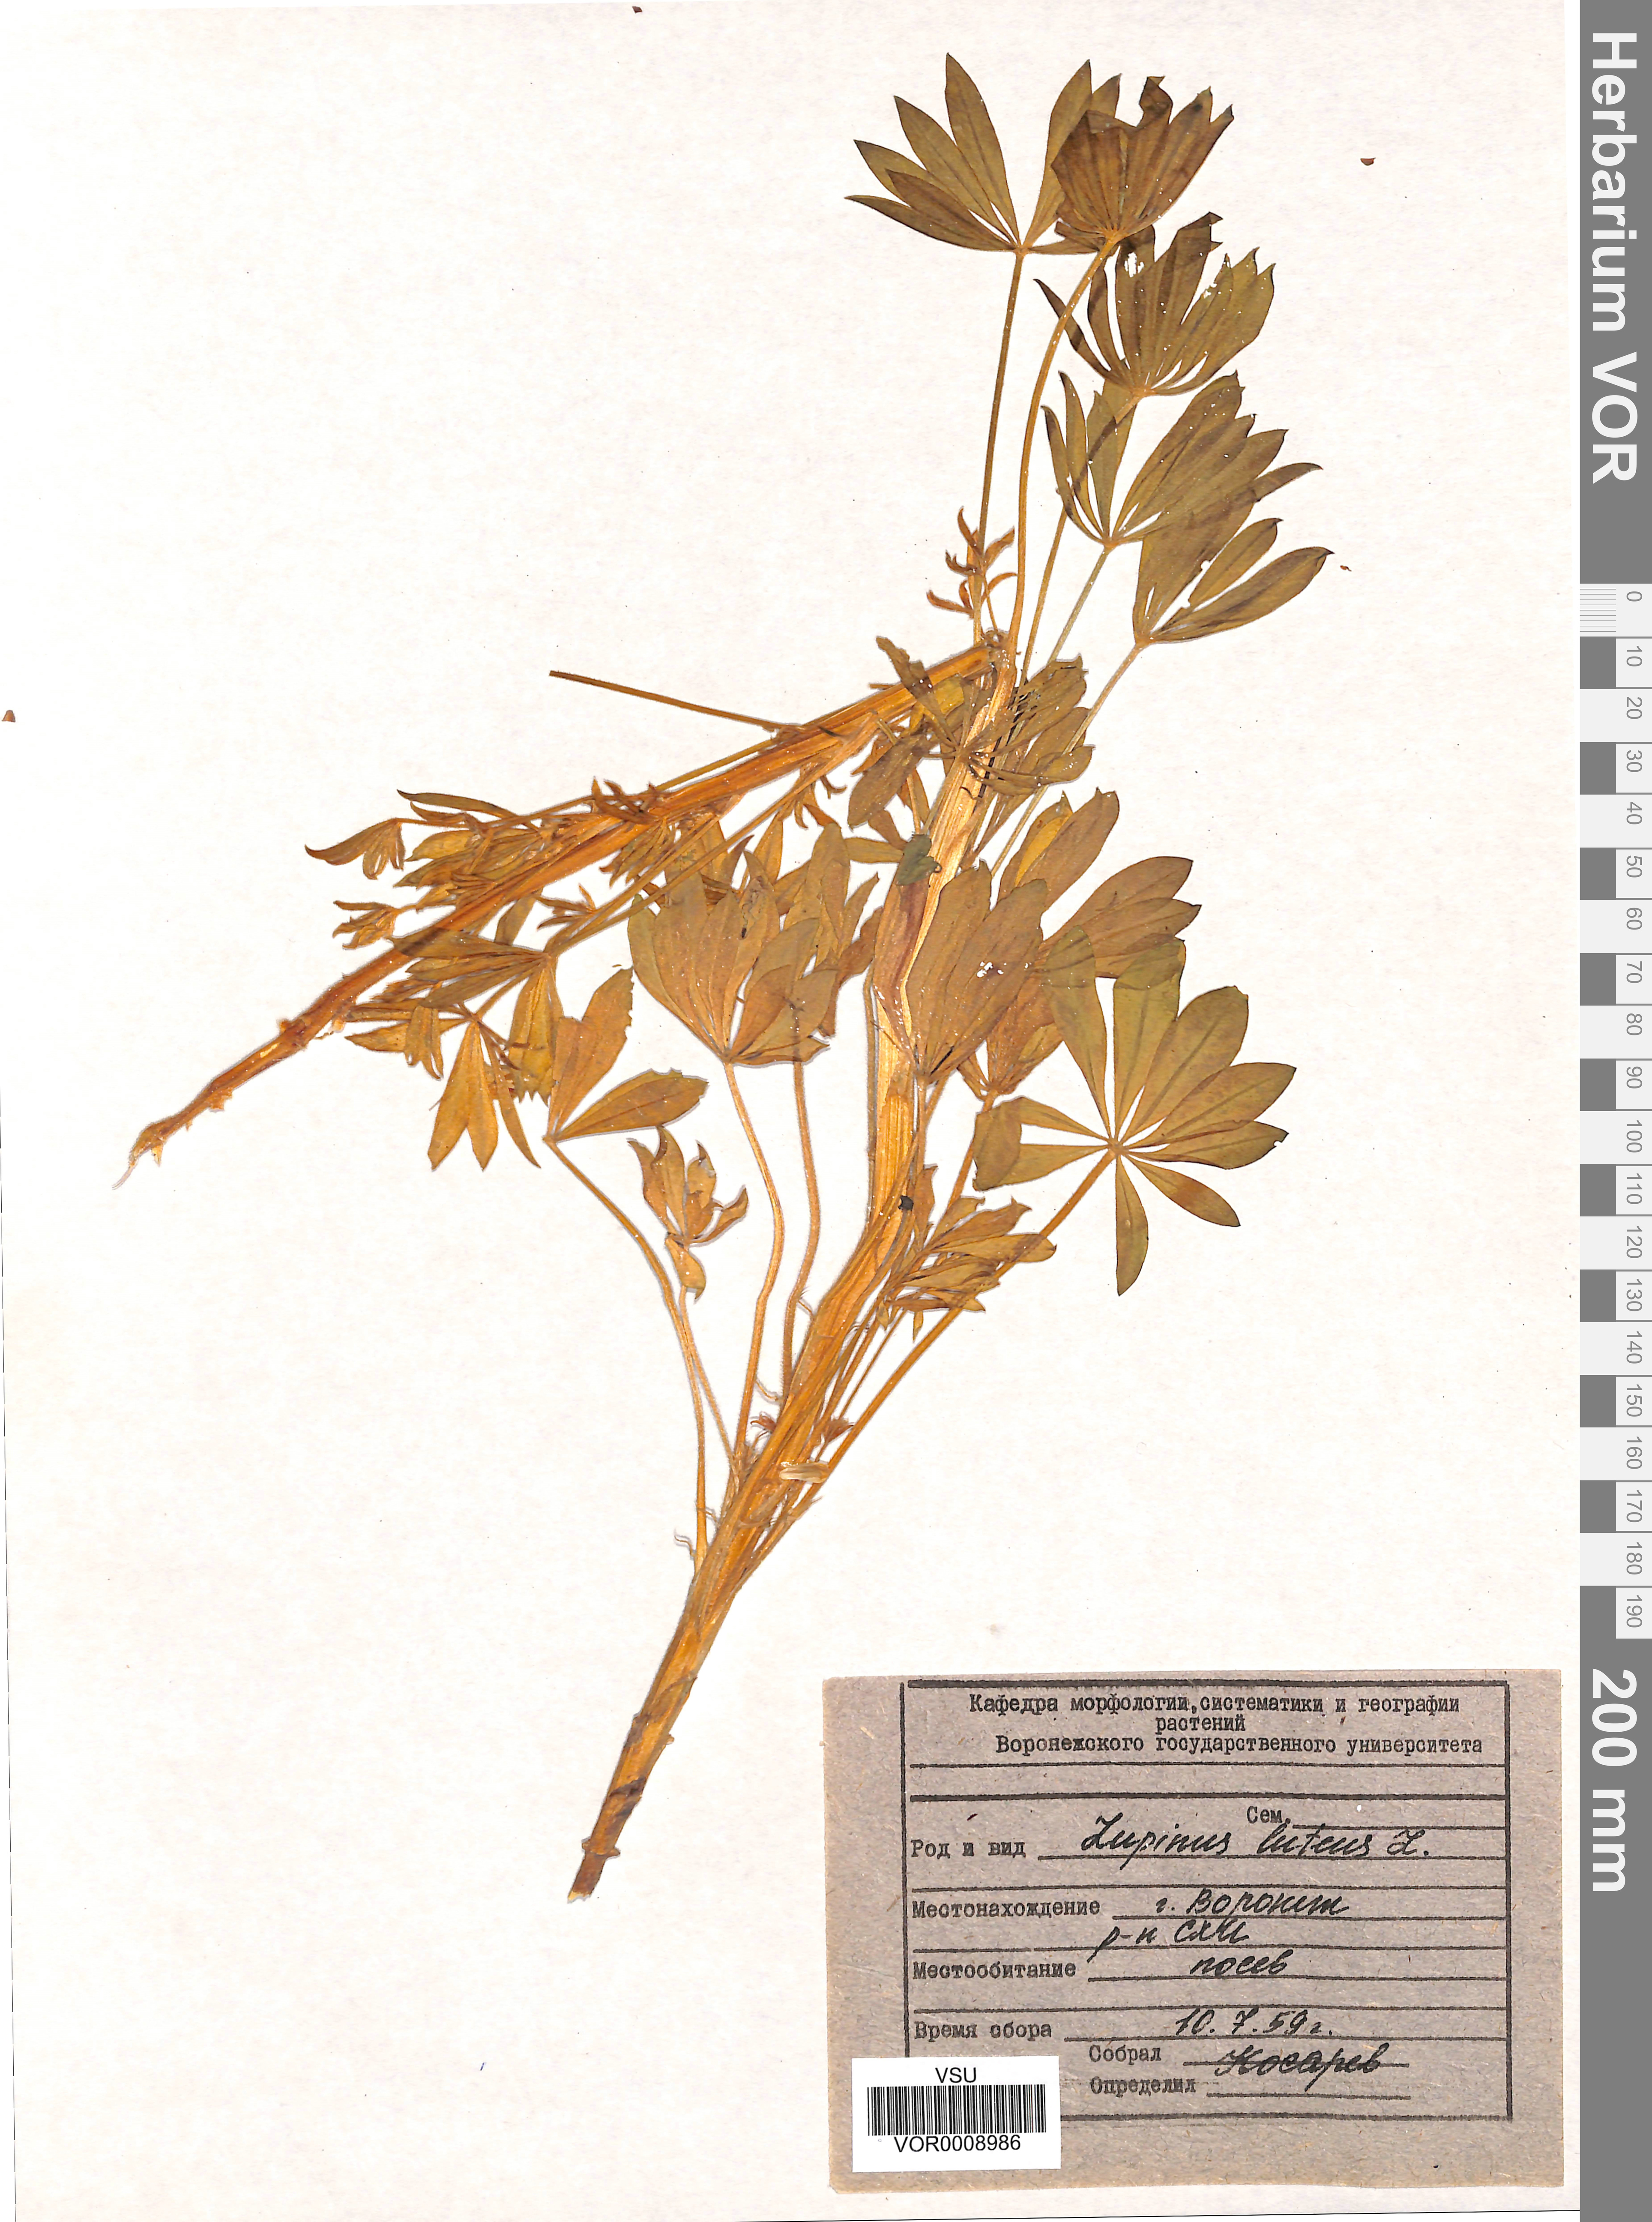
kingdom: Plantae
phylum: Tracheophyta
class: Magnoliopsida
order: Fabales
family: Fabaceae
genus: Lupinus
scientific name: Lupinus luteus
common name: European yellow lupine
